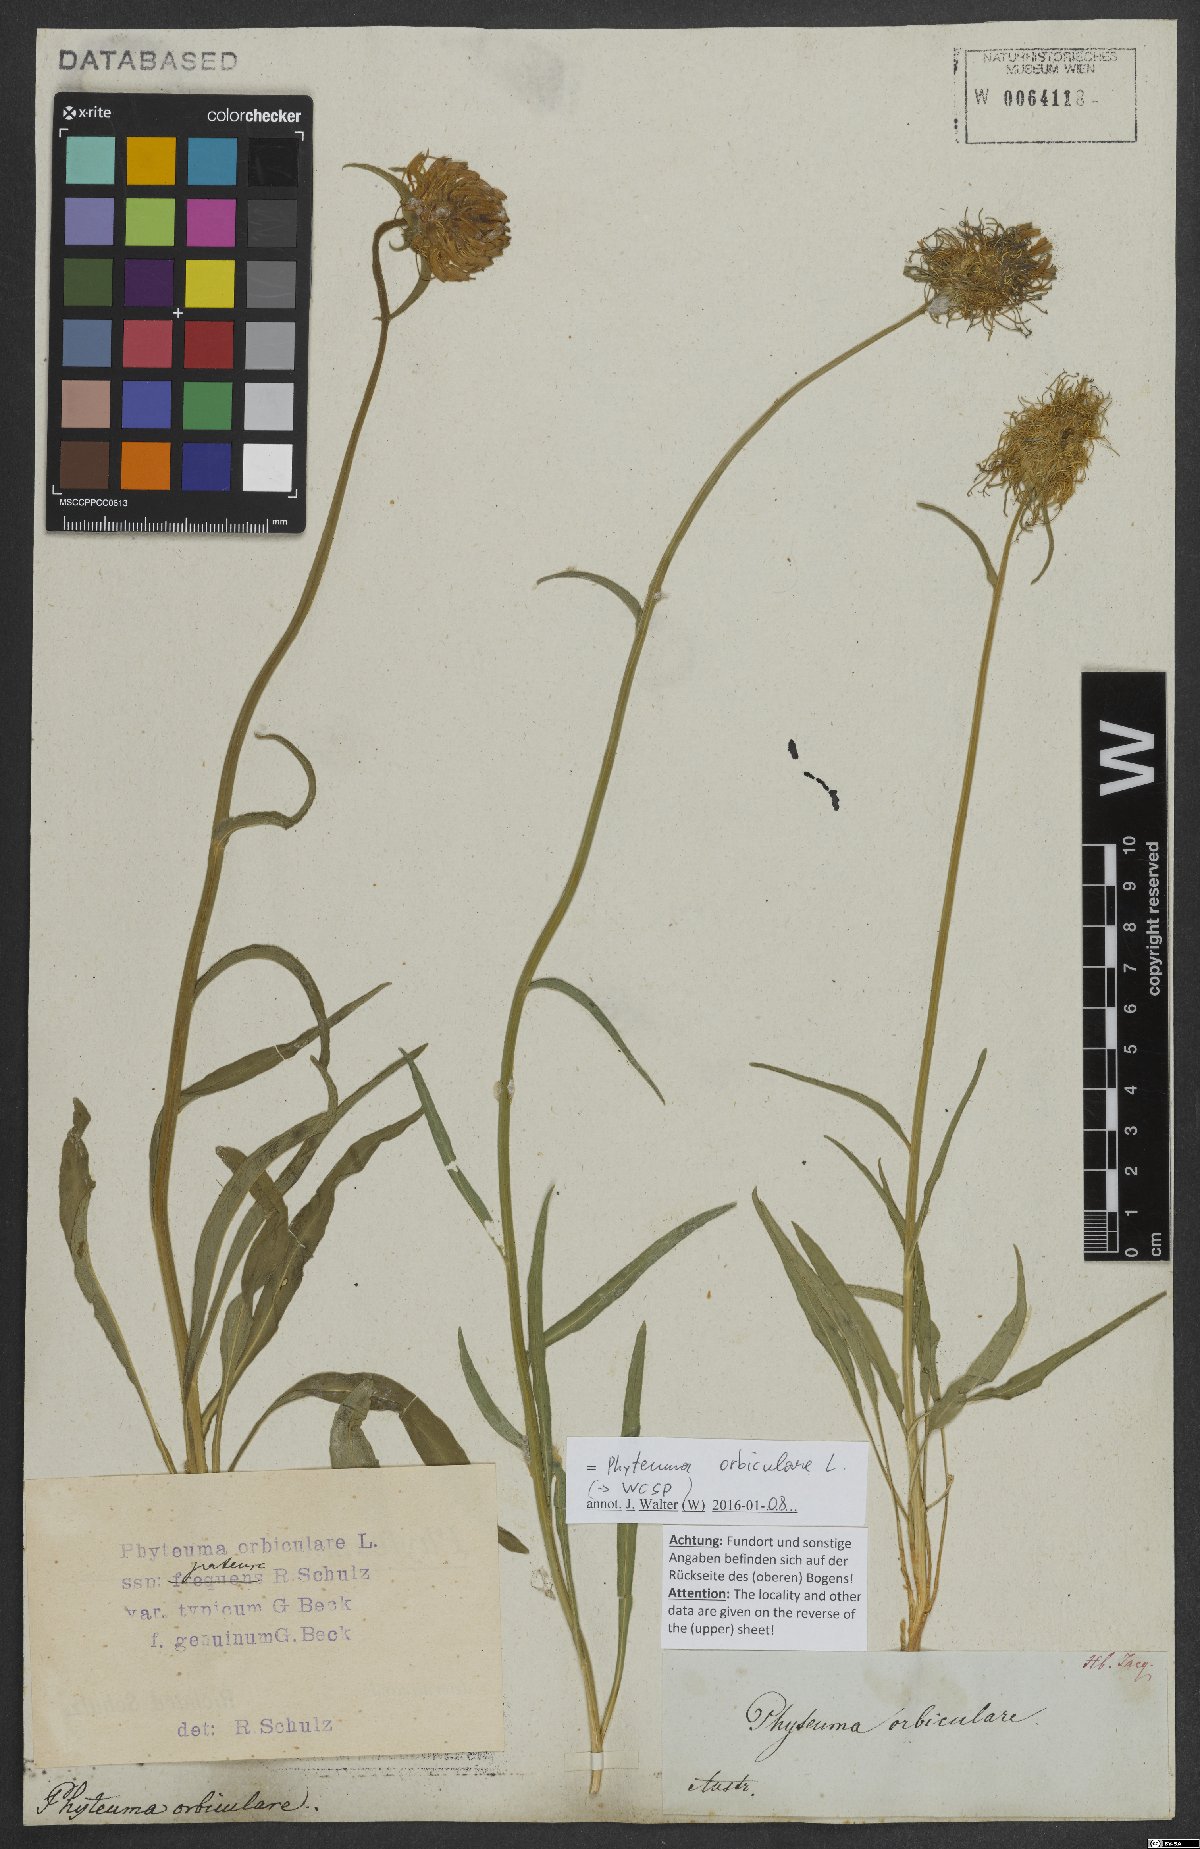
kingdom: Plantae
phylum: Tracheophyta
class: Magnoliopsida
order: Asterales
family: Campanulaceae
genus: Phyteuma
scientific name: Phyteuma orbiculare
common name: Round-headed rampion
